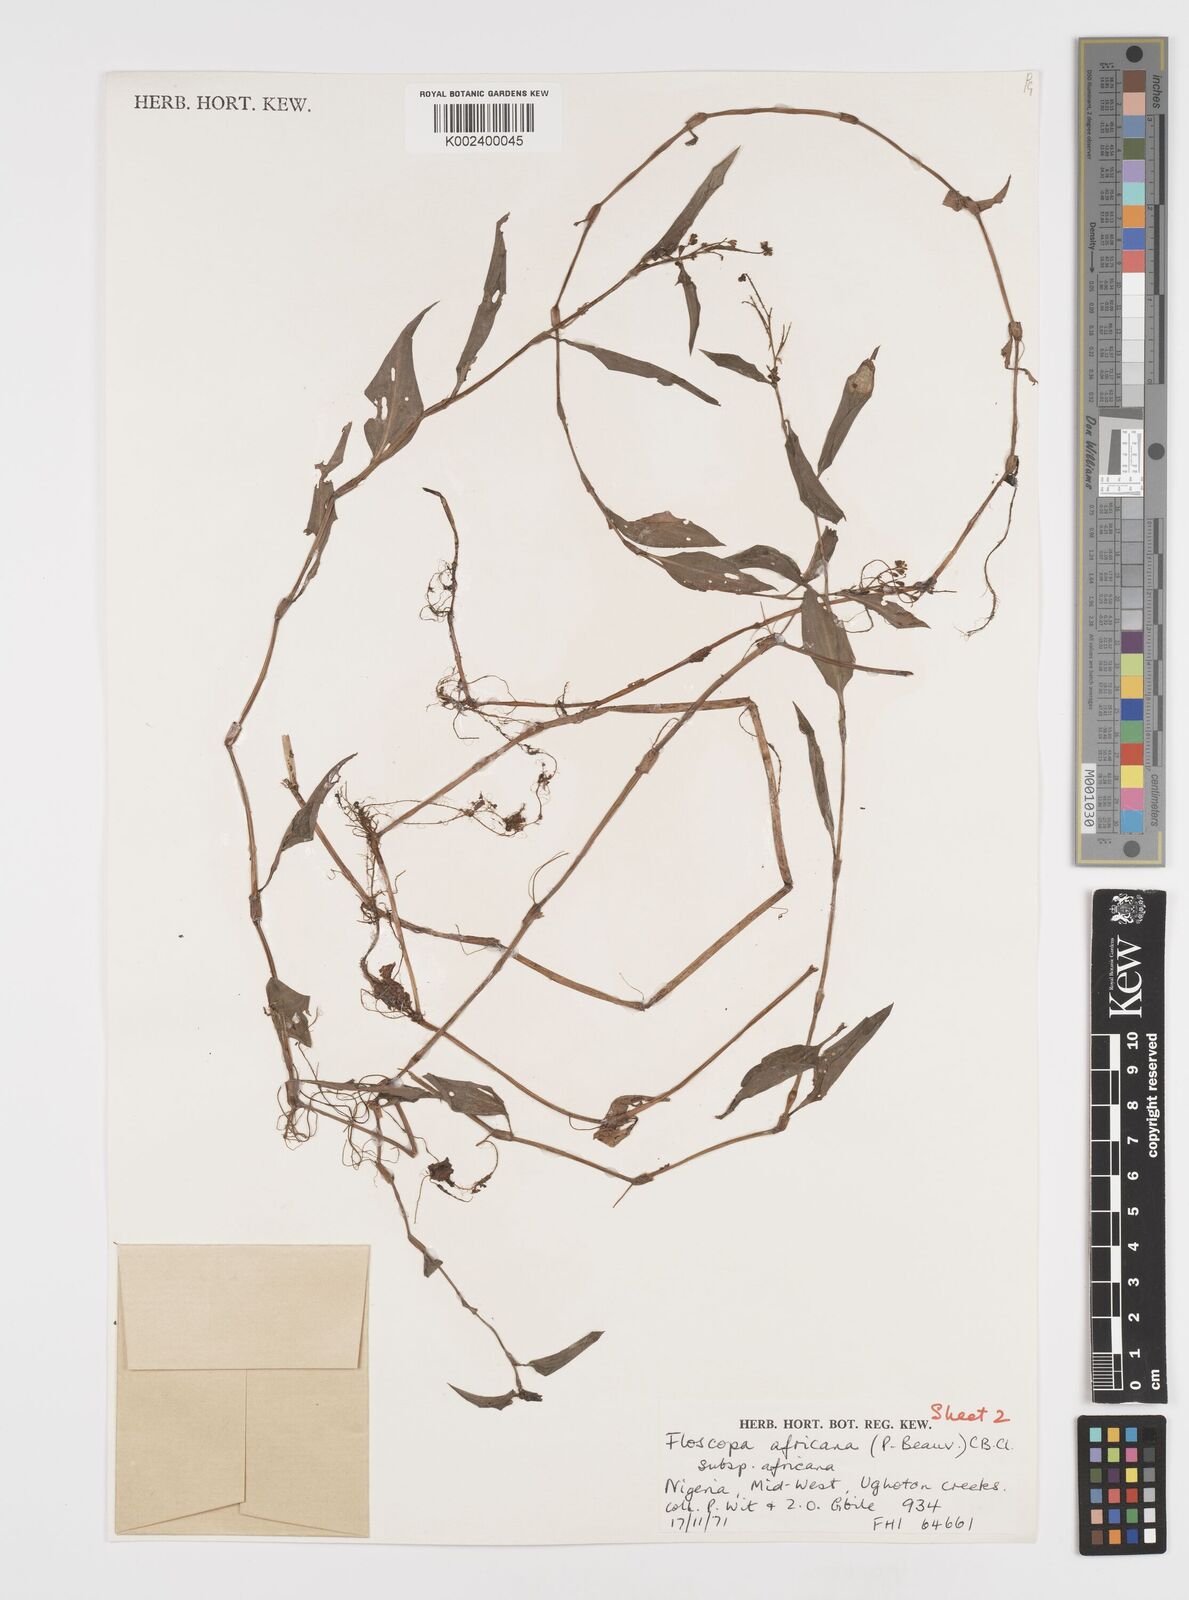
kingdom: Plantae
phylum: Tracheophyta
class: Liliopsida
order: Commelinales
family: Commelinaceae
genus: Floscopa
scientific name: Floscopa africana
